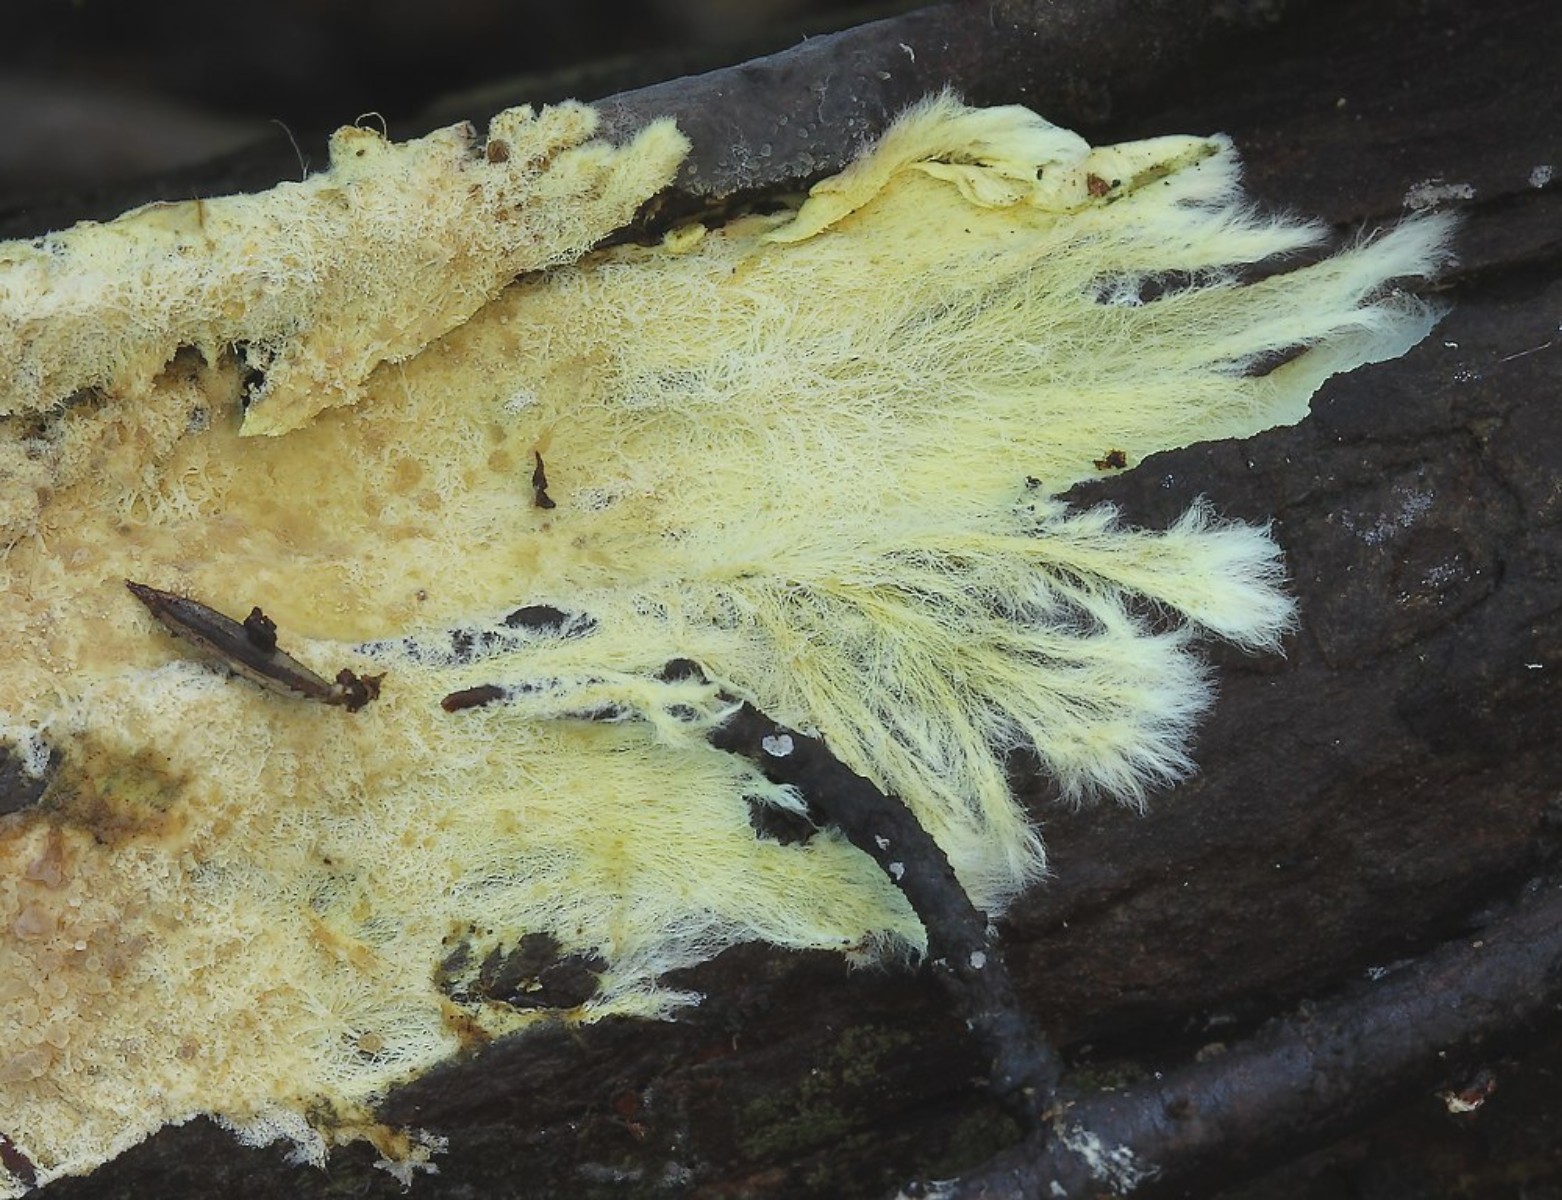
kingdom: Fungi
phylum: Basidiomycota
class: Agaricomycetes
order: Russulales
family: Xenasmataceae
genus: Xenasmatella
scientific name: Xenasmatella vaga
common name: svovl-strenghinde
